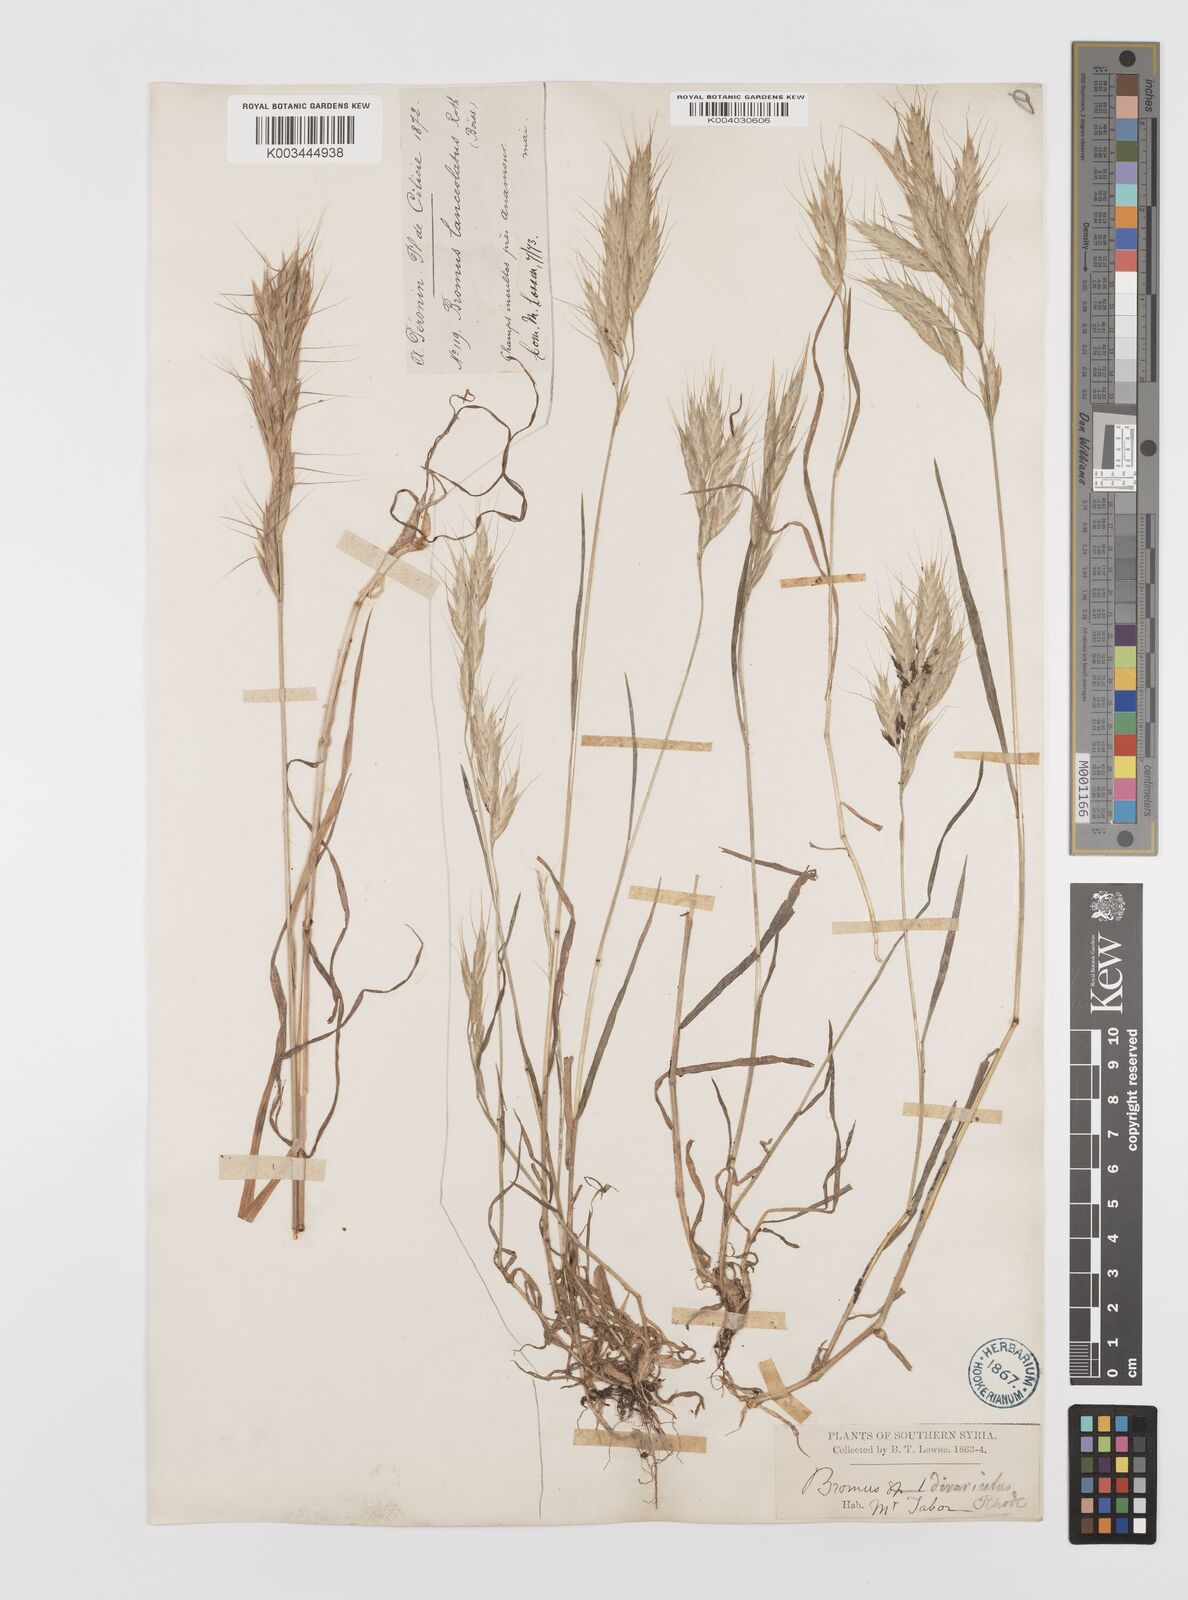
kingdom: Plantae
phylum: Tracheophyta
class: Liliopsida
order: Poales
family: Poaceae
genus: Bromus
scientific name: Bromus lanceolatus
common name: Mediterranean brome
